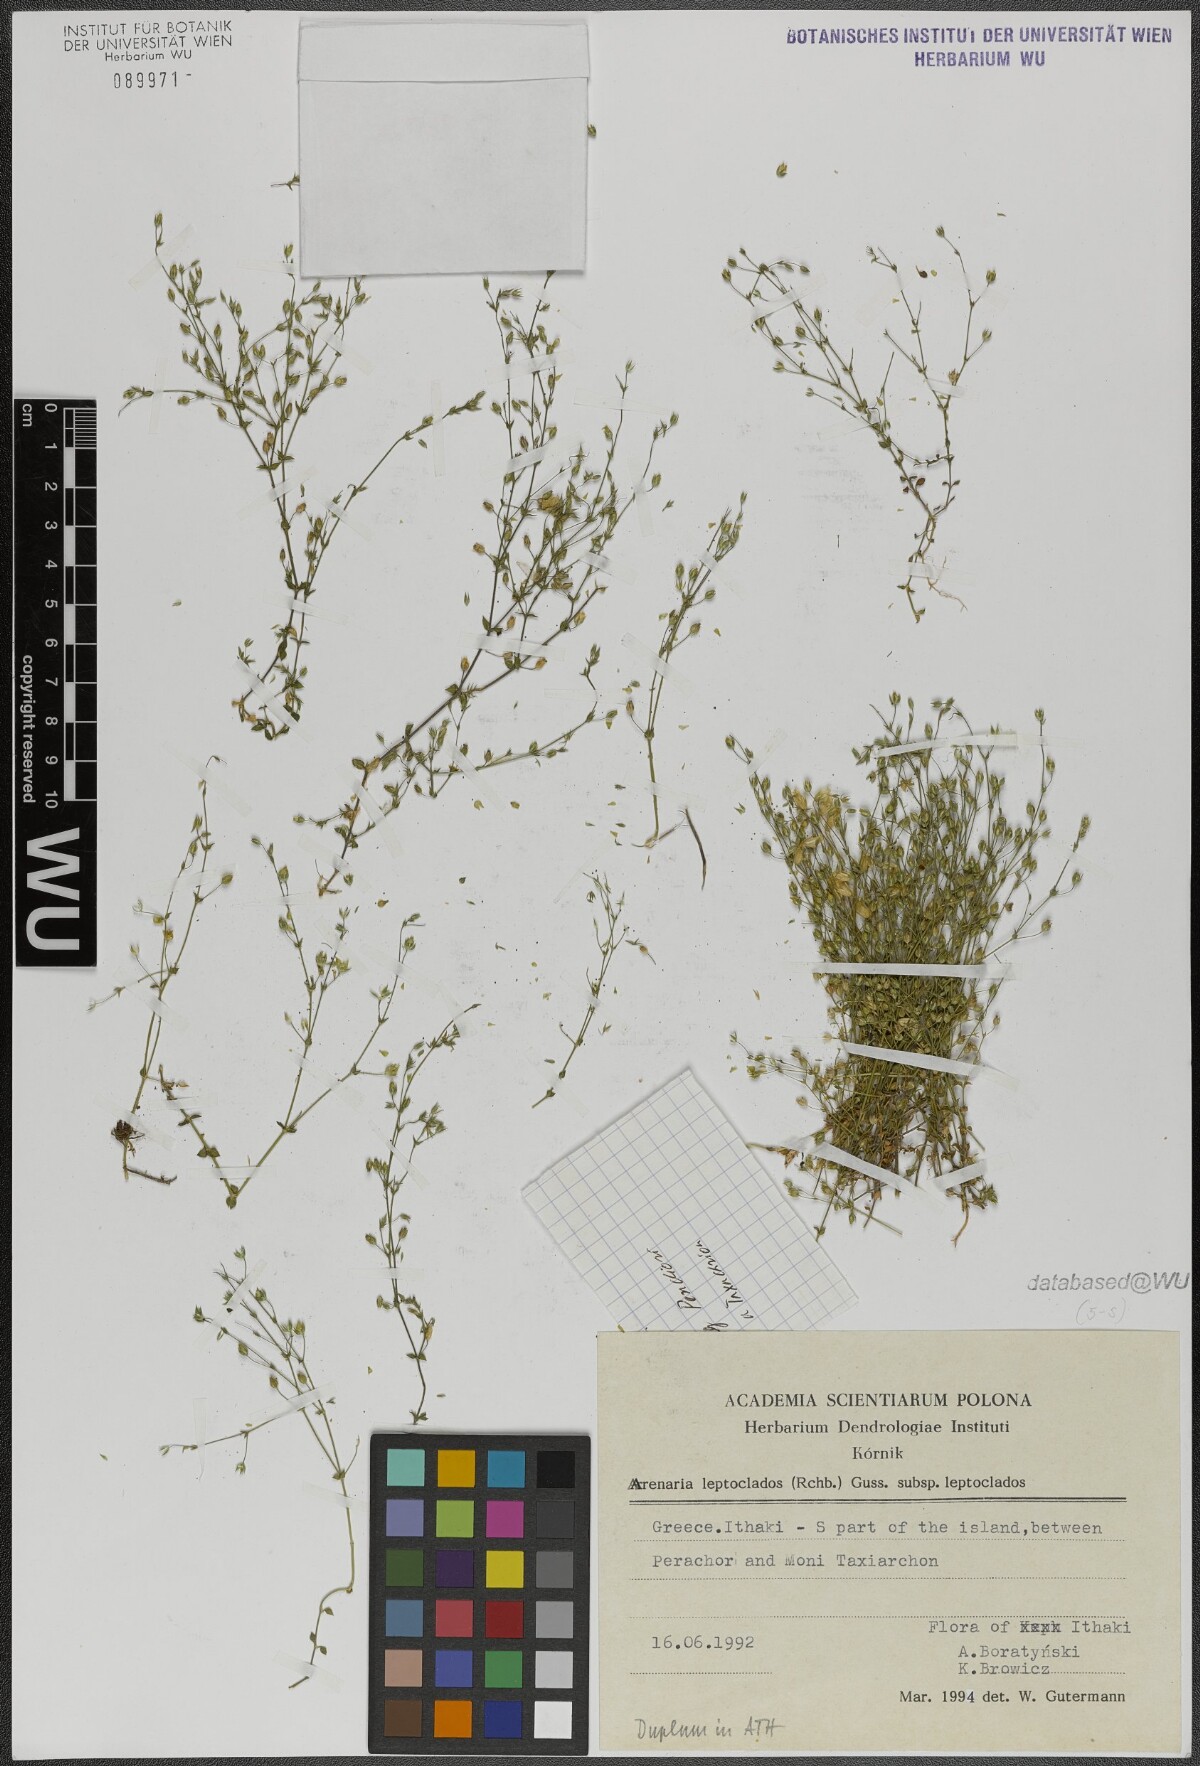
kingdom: Plantae
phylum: Tracheophyta
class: Magnoliopsida
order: Caryophyllales
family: Caryophyllaceae
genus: Arenaria
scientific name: Arenaria leptoclados
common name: Thyme-leaved sandwort
